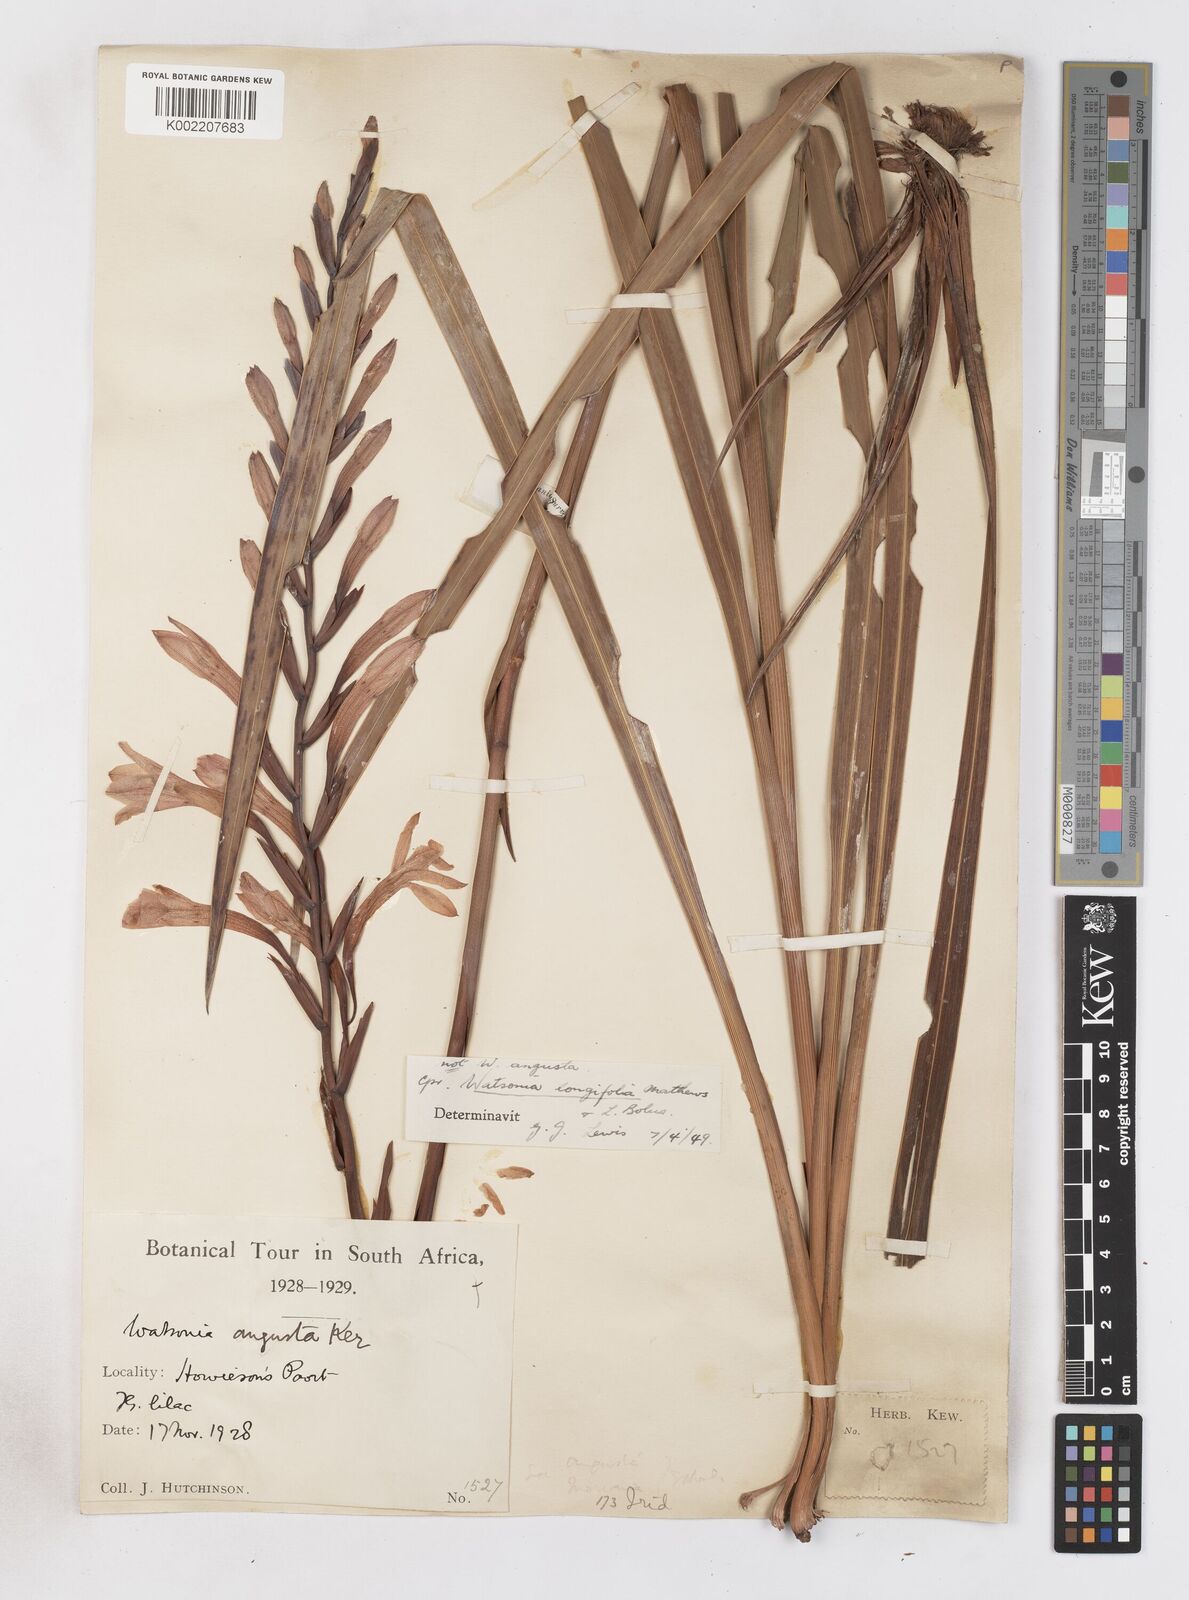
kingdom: Plantae
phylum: Tracheophyta
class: Liliopsida
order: Asparagales
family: Iridaceae
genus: Watsonia
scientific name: Watsonia longifolia
